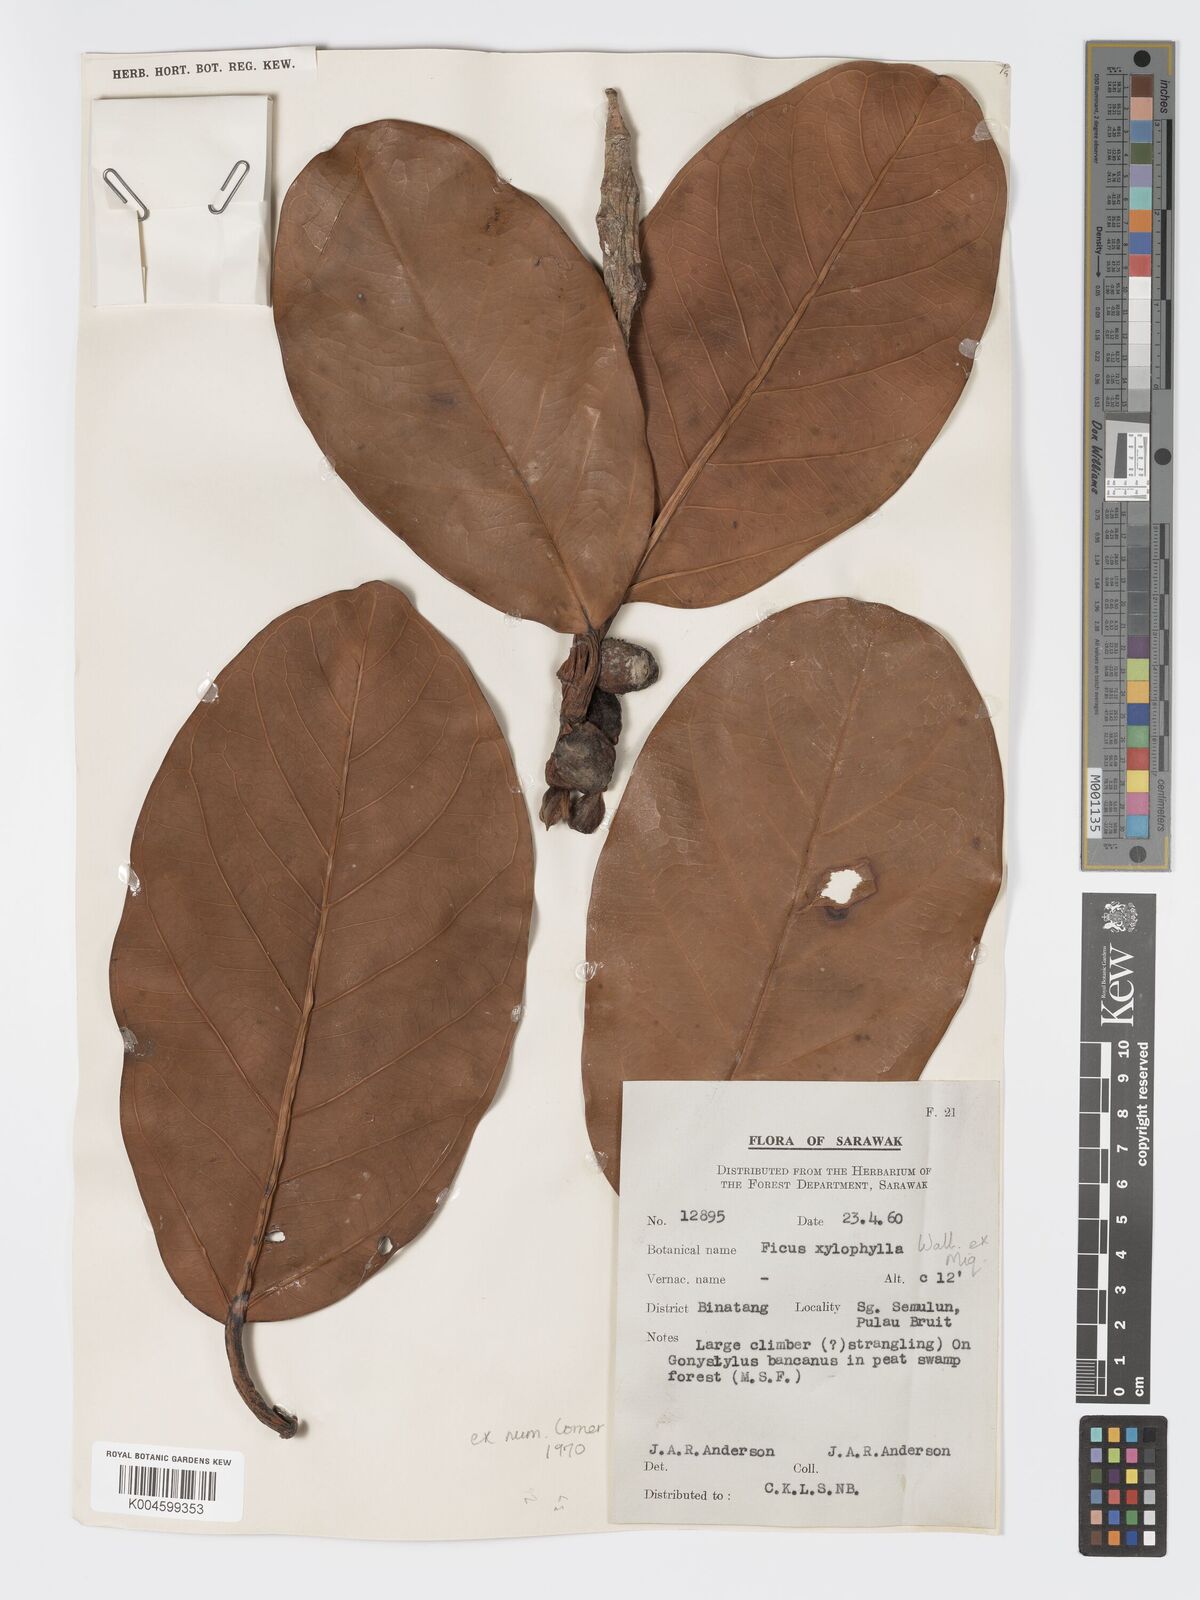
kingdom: Plantae
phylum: Tracheophyta
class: Magnoliopsida
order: Rosales
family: Moraceae
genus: Ficus
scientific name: Ficus xylophylla
